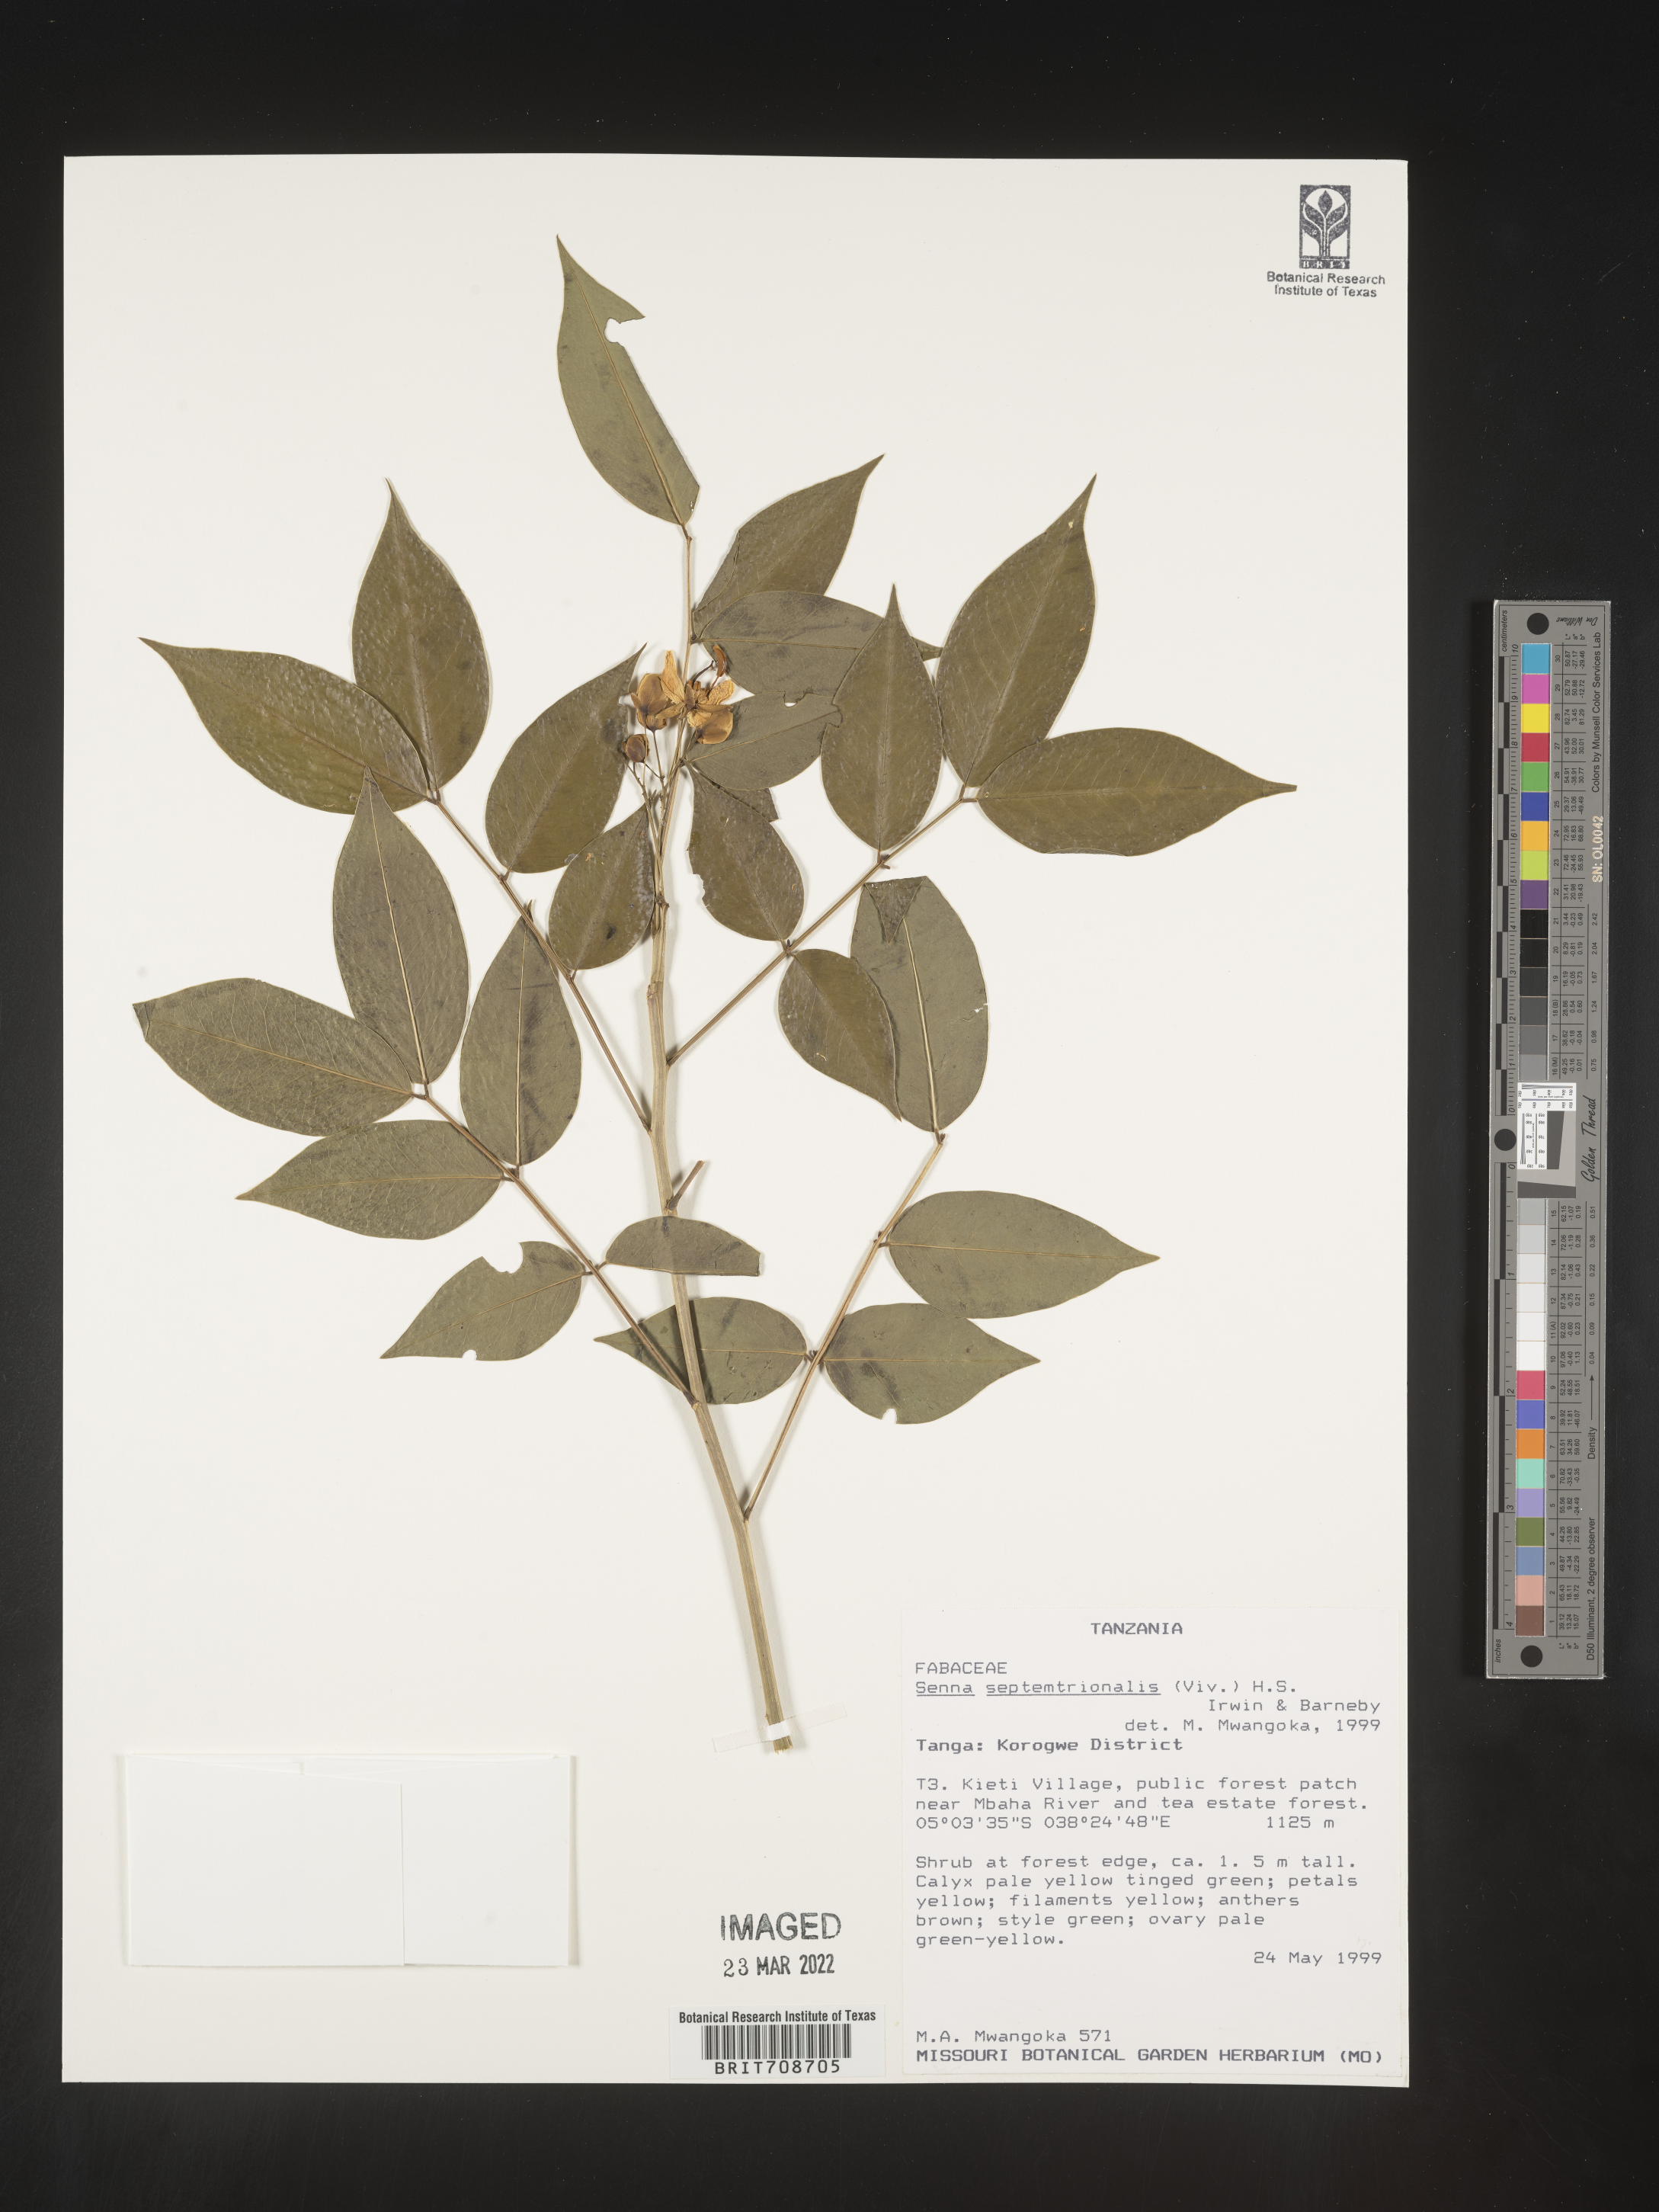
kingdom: Plantae
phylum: Tracheophyta
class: Magnoliopsida
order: Fabales
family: Fabaceae
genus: Senna
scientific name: Senna
